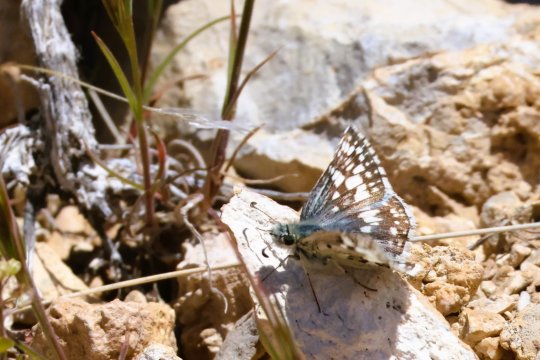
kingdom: Animalia
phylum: Arthropoda
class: Insecta
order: Lepidoptera
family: Hesperiidae
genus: Pyrgus
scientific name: Pyrgus communis
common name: White Checkered-Skipper
